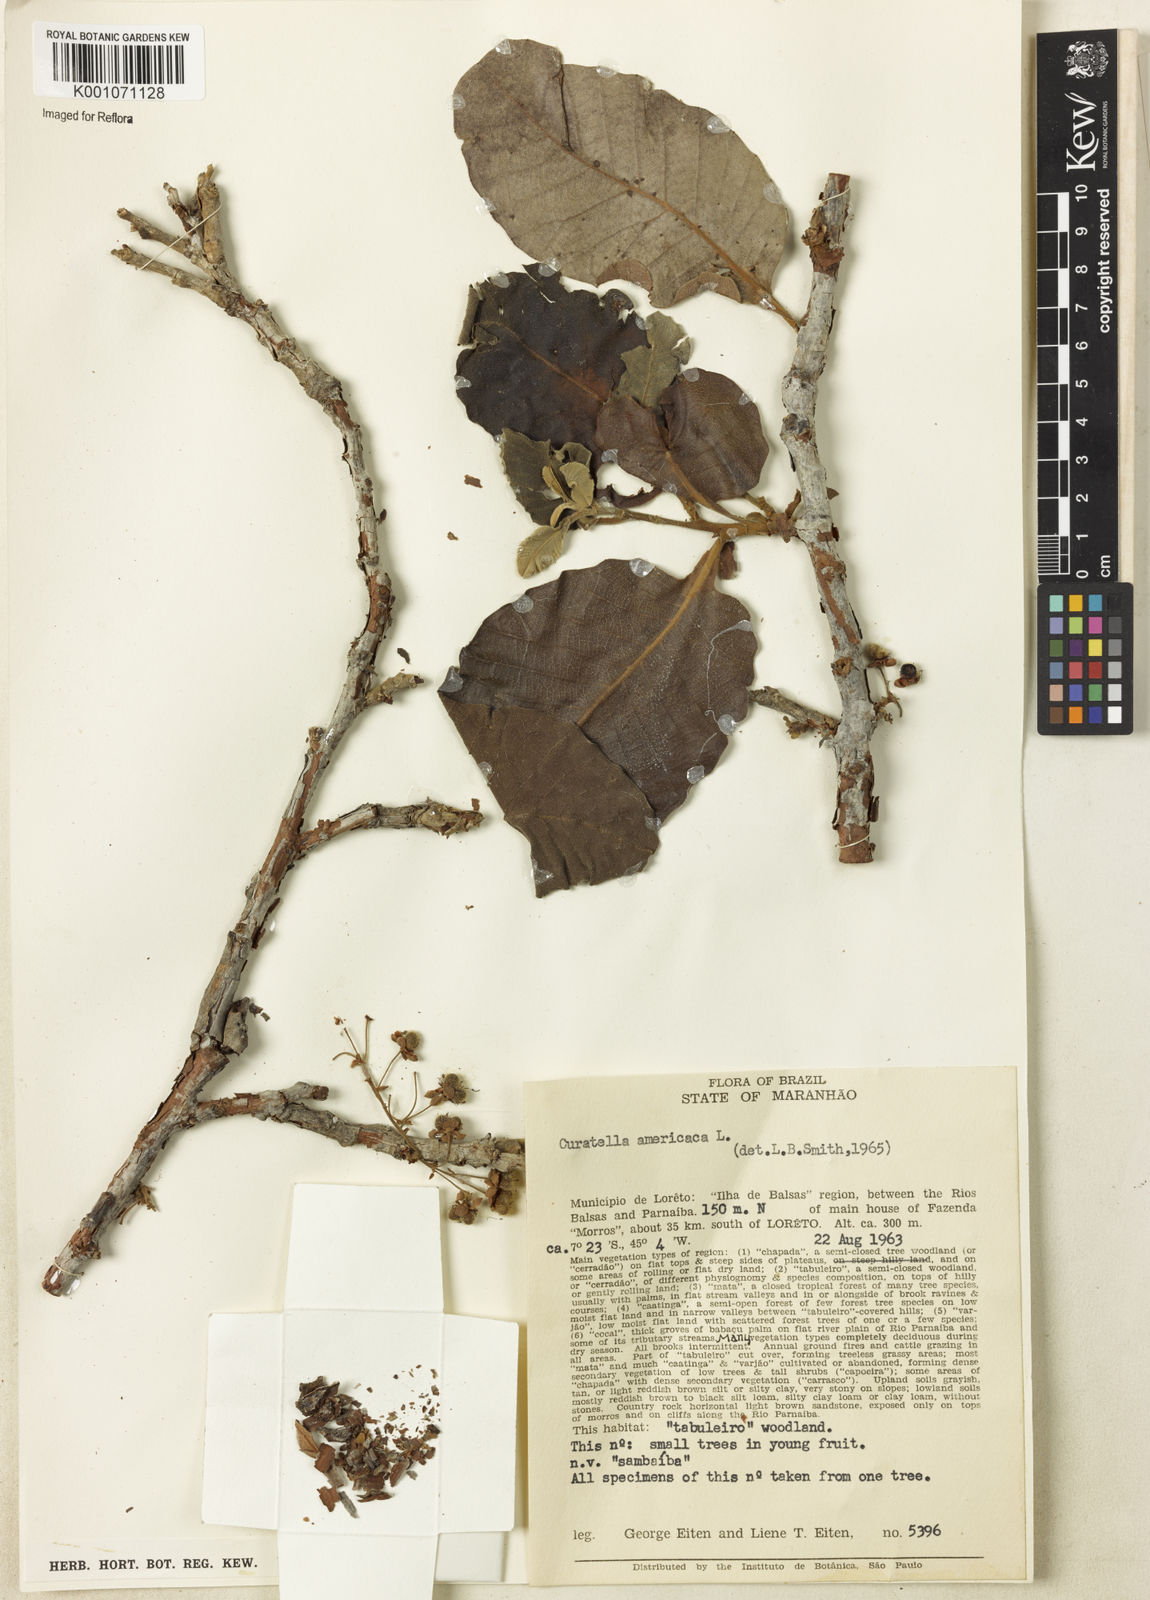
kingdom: Plantae
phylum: Tracheophyta
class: Magnoliopsida
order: Dilleniales
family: Dilleniaceae
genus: Curatella
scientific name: Curatella americana
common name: Sandpaper tree
